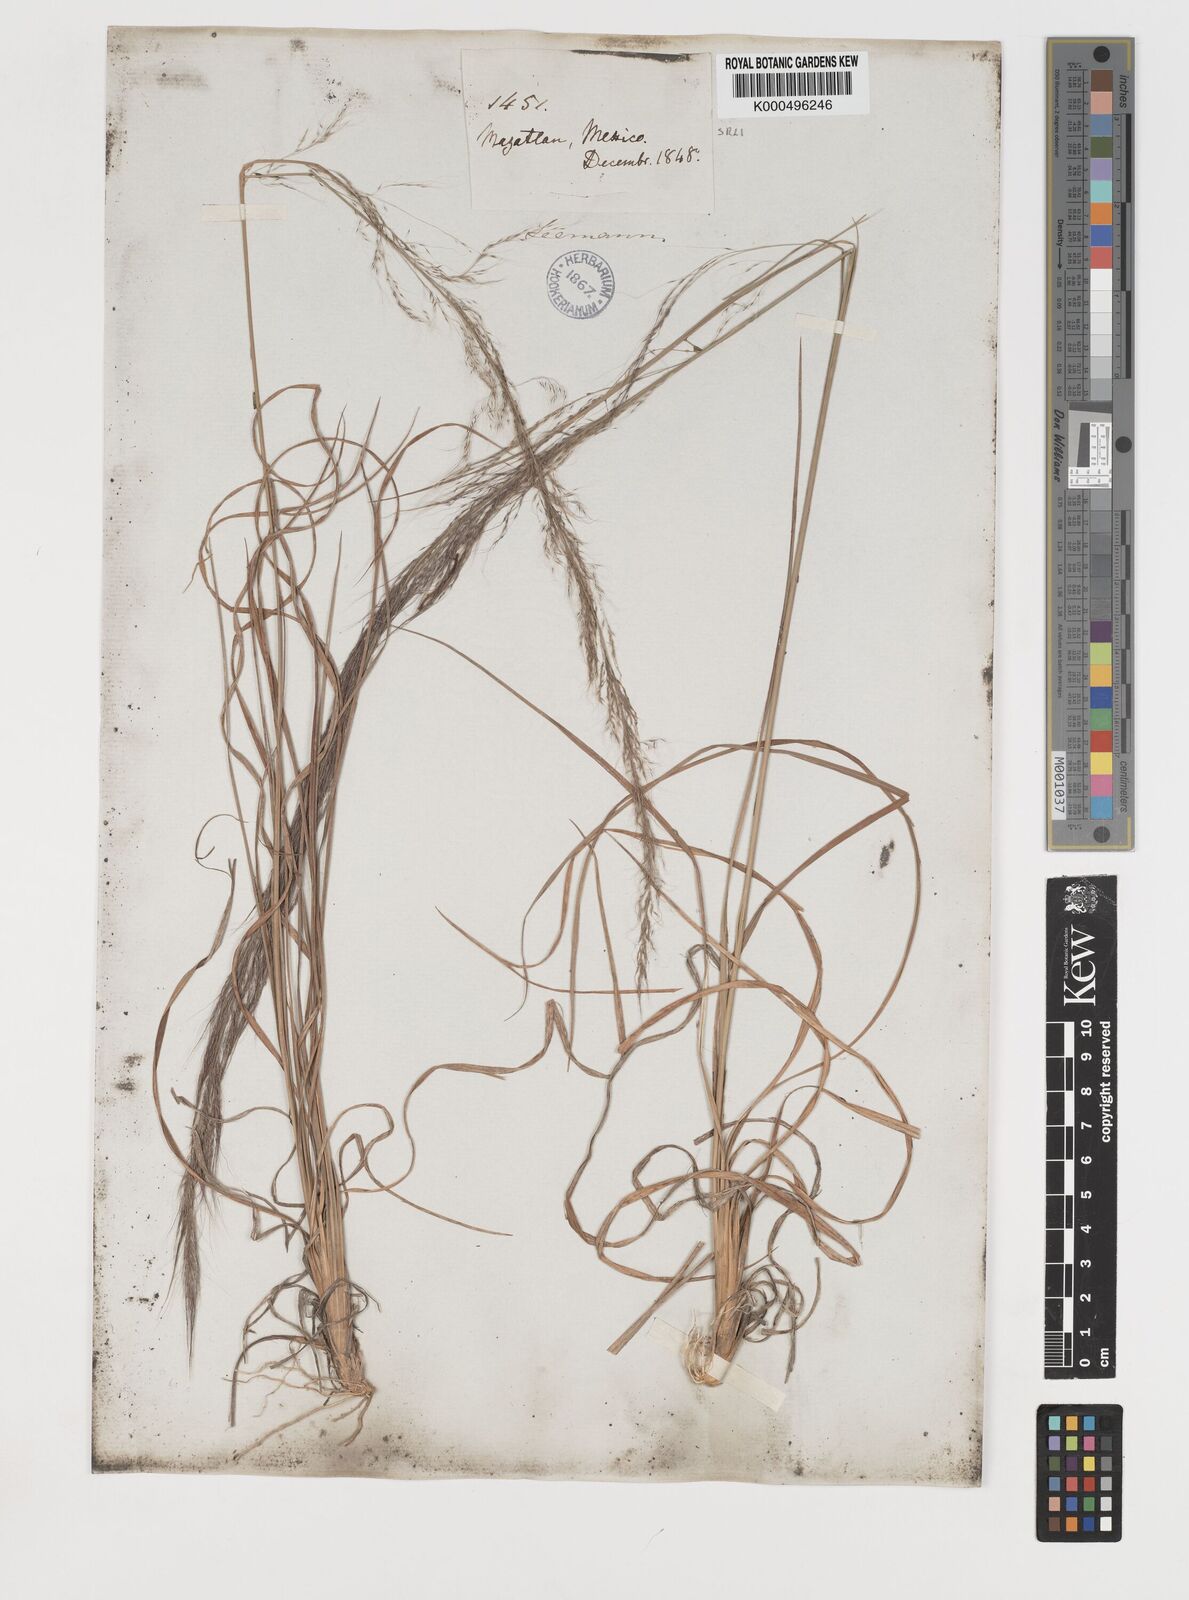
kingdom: Plantae
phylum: Tracheophyta
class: Liliopsida
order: Poales
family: Poaceae
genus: Muhlenbergia
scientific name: Muhlenbergia
